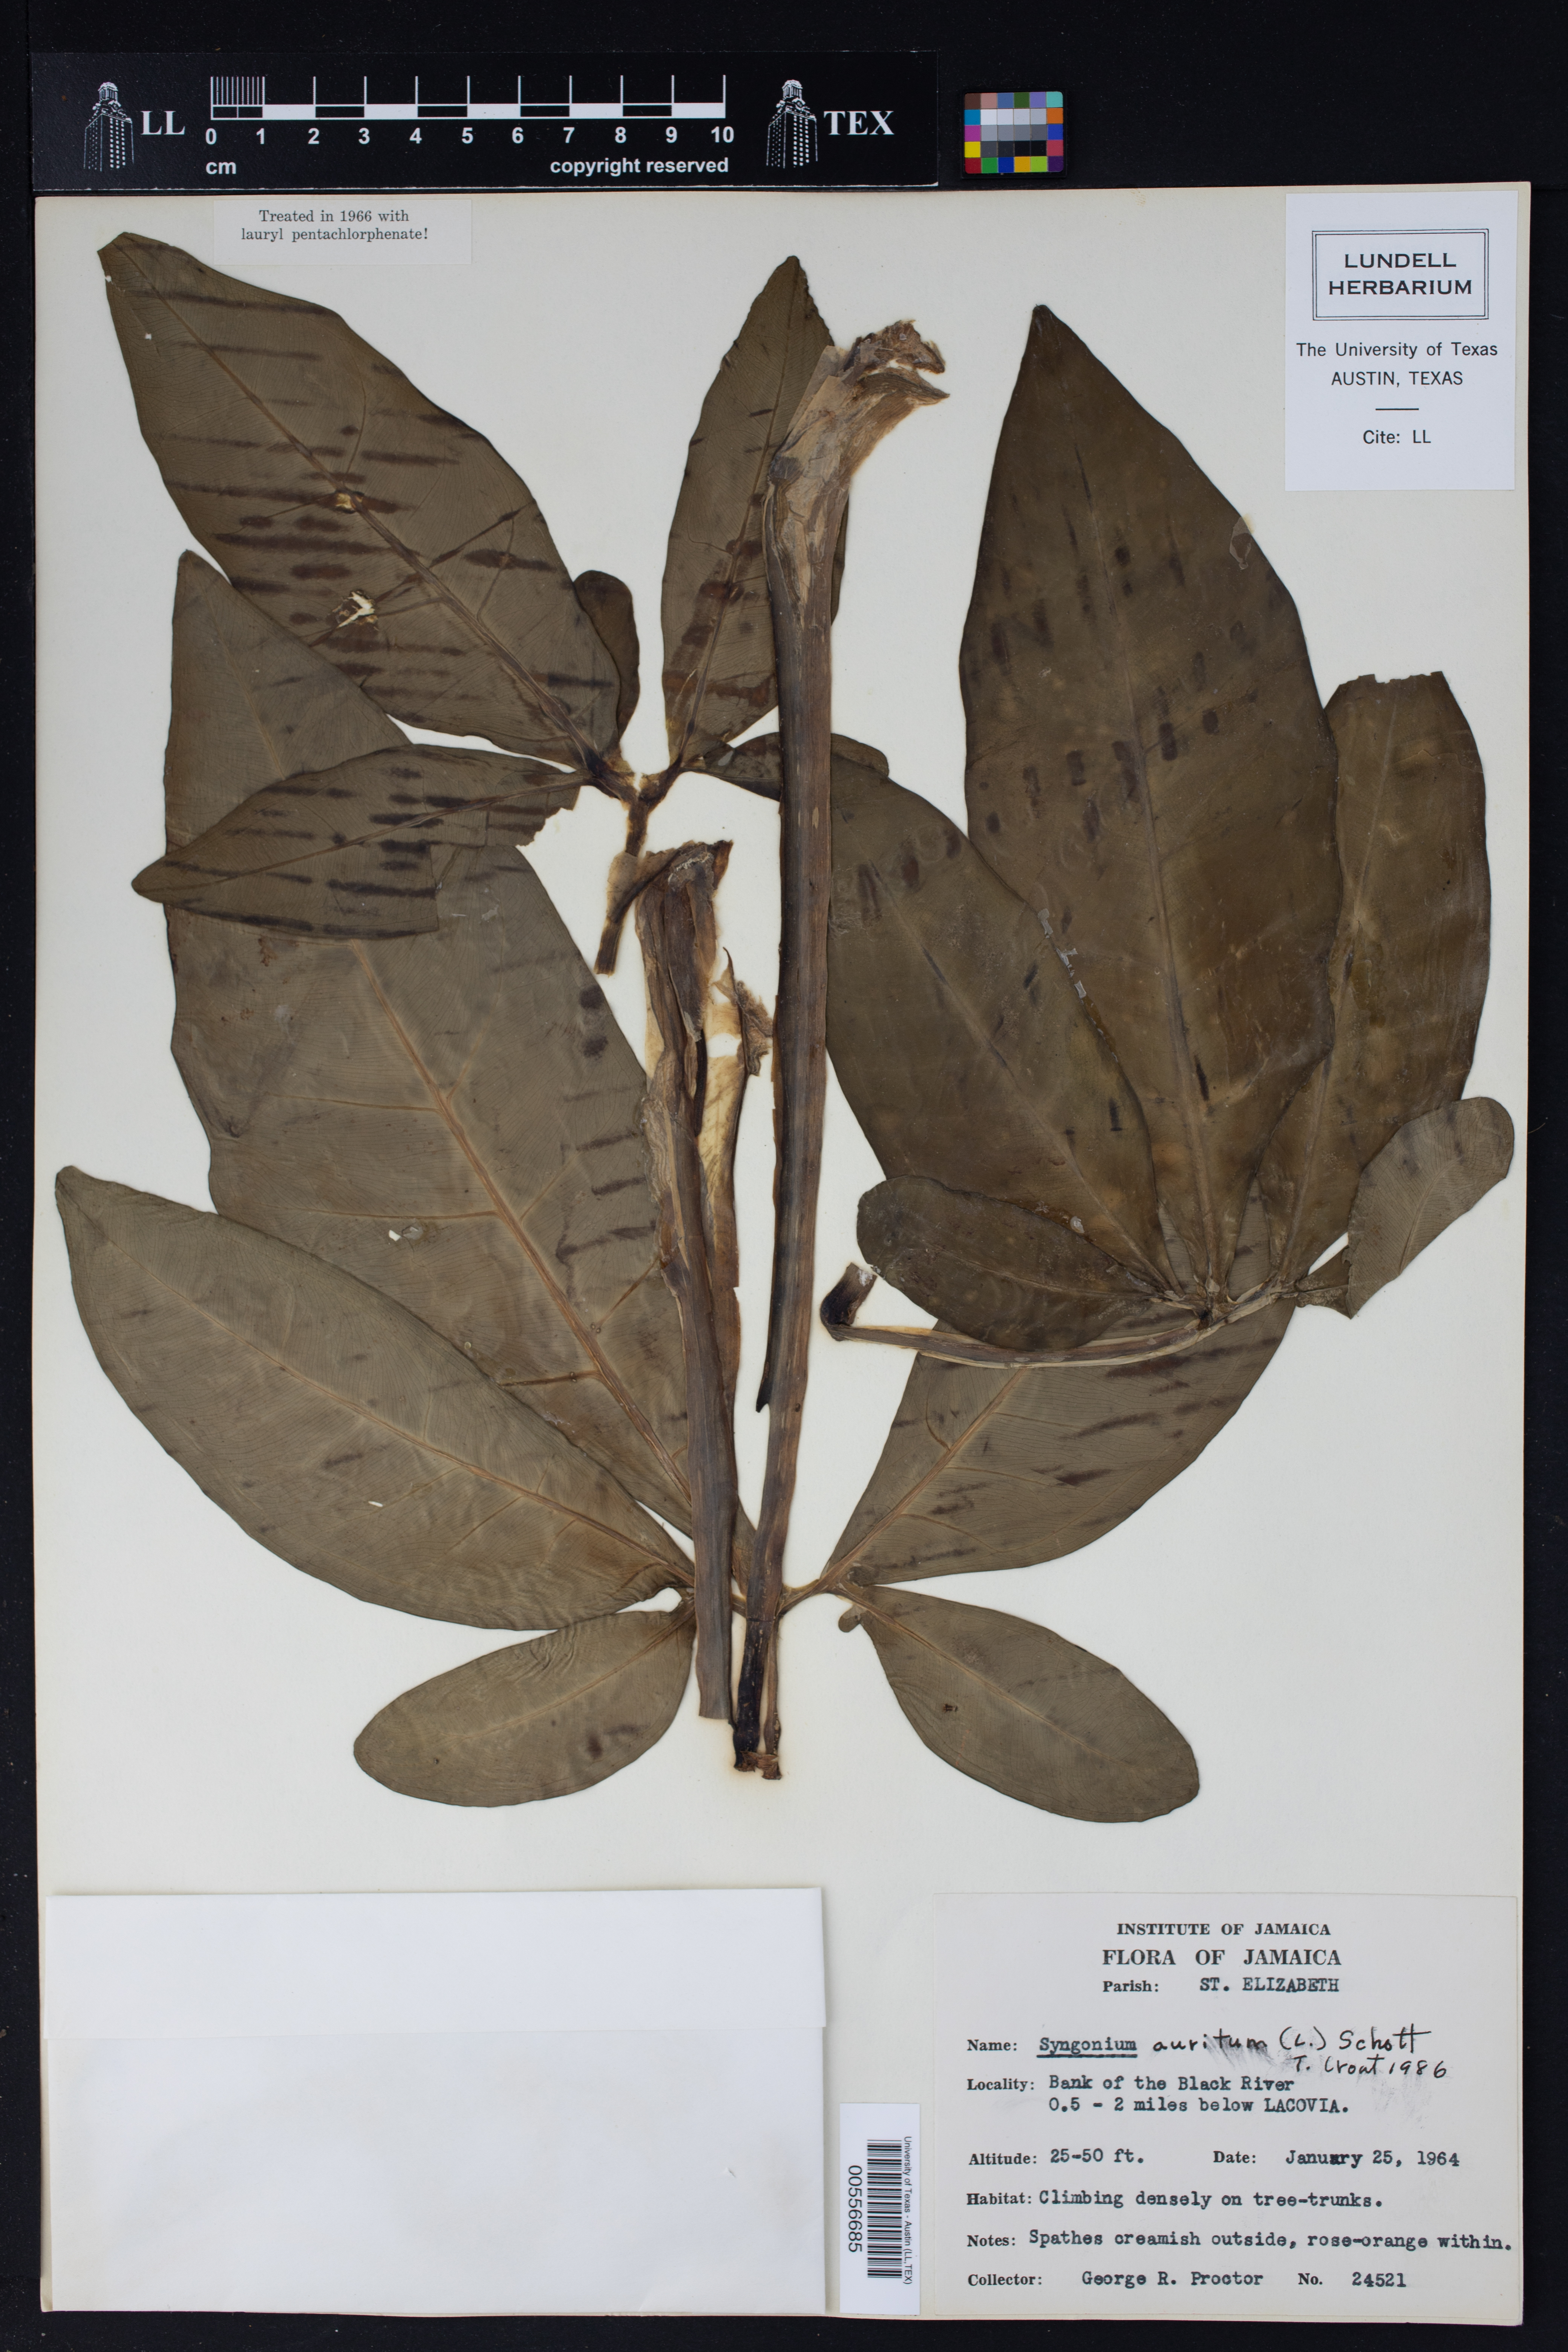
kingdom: Plantae
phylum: Tracheophyta
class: Liliopsida
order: Alismatales
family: Araceae
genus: Syngonium
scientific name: Syngonium auritum
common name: Five-fingers
